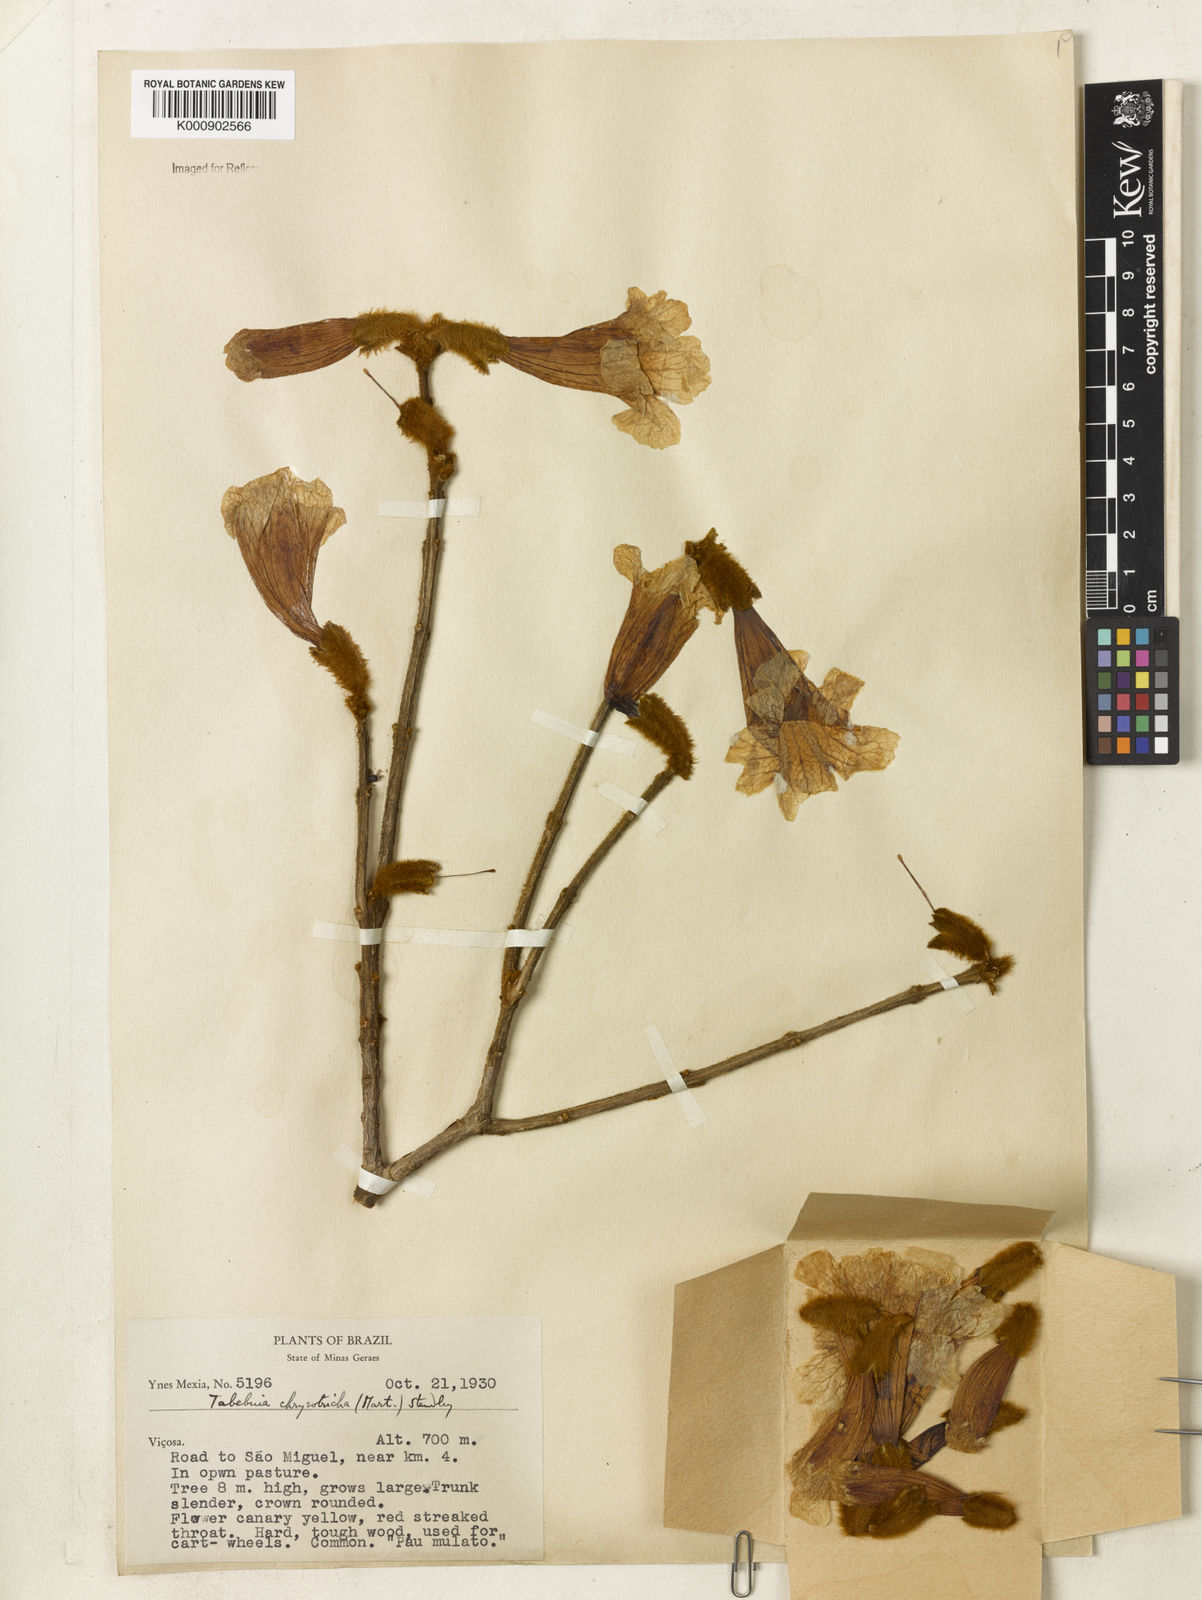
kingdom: Plantae
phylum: Tracheophyta
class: Magnoliopsida
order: Lamiales
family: Bignoniaceae
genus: Handroanthus
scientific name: Handroanthus chrysotrichus
